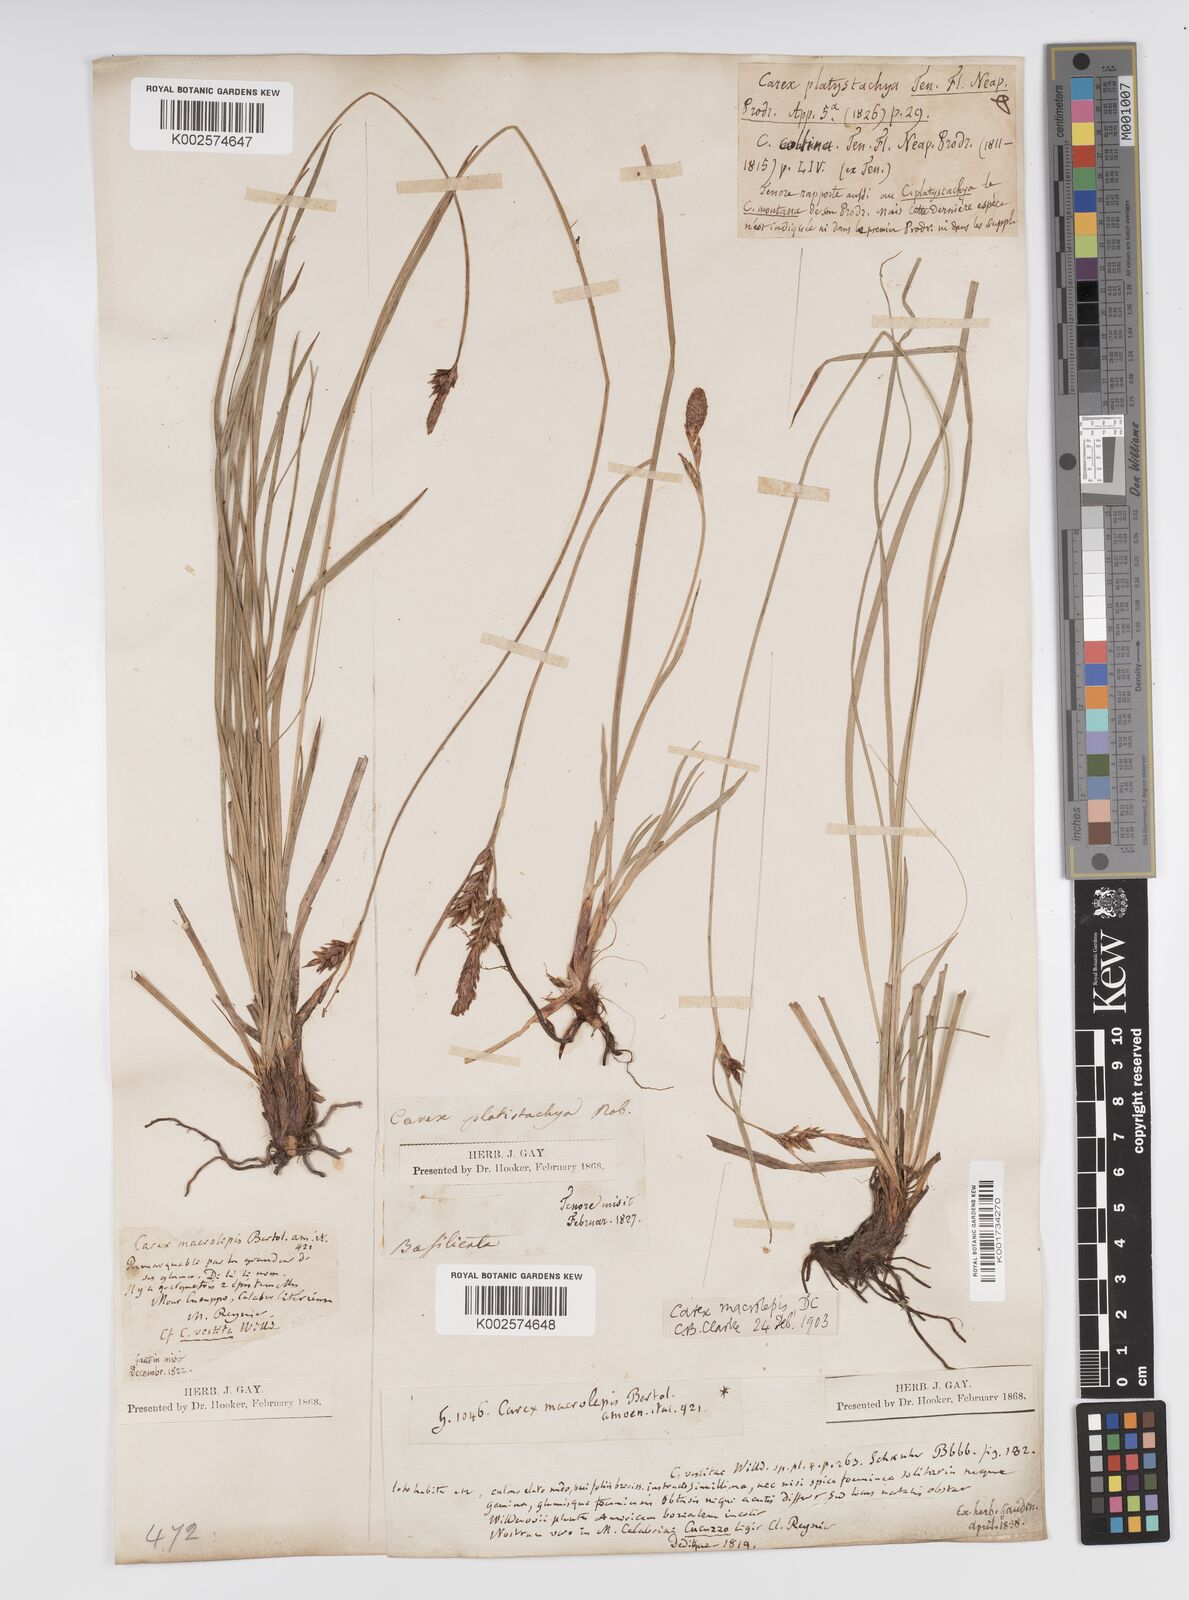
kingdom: Plantae
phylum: Tracheophyta
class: Liliopsida
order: Poales
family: Cyperaceae
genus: Carex
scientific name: Carex macrolepis
